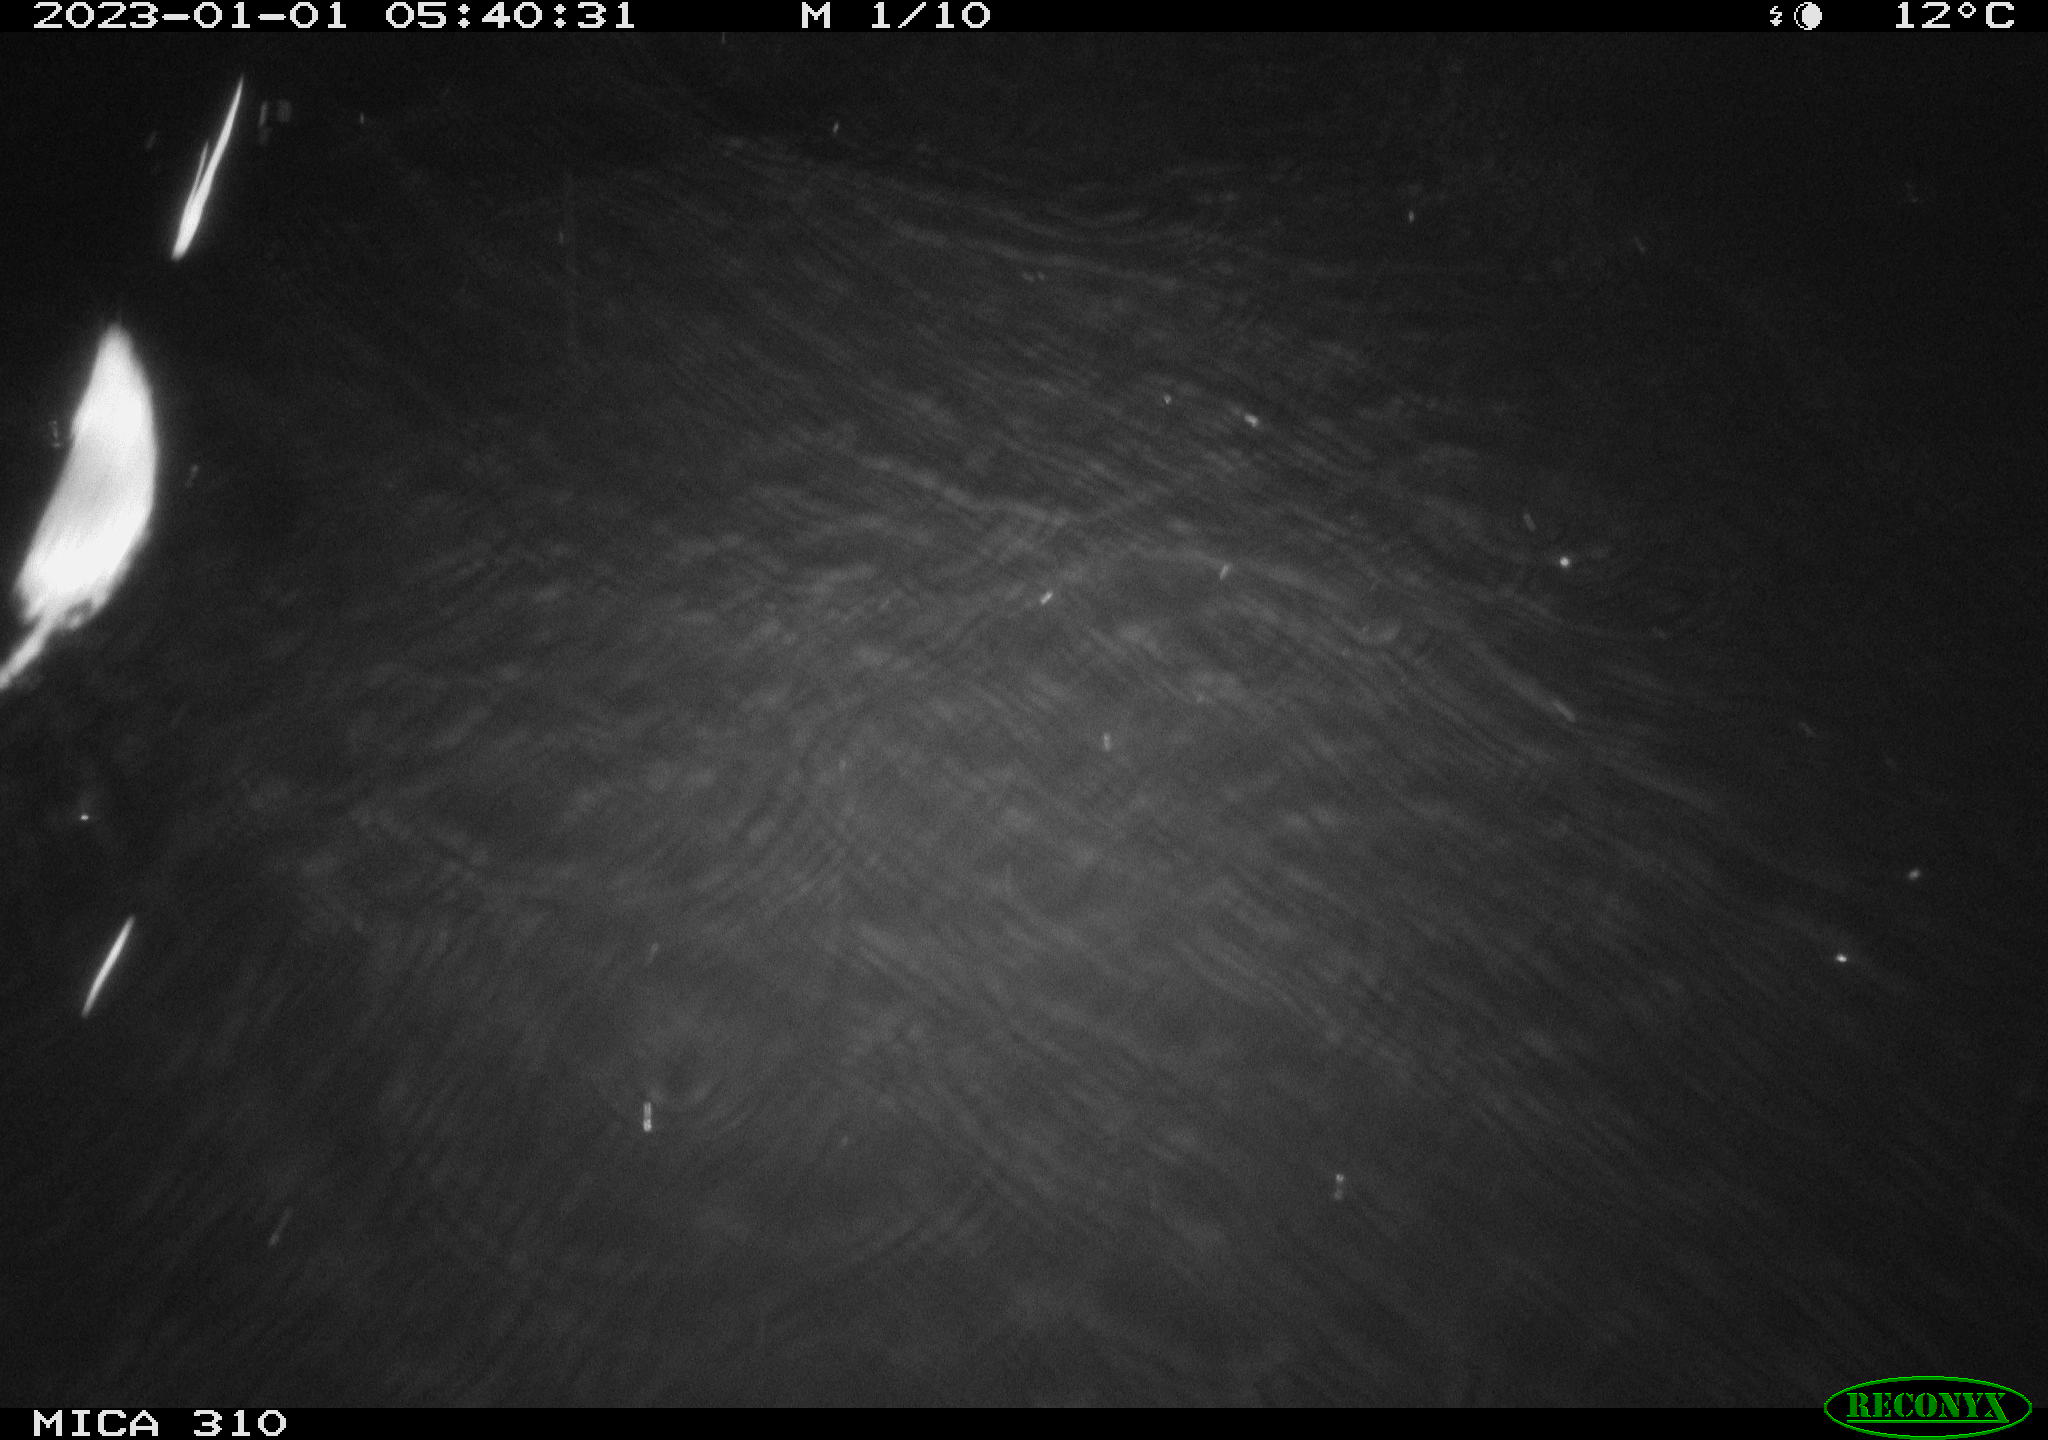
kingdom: Animalia
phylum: Chordata
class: Mammalia
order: Rodentia
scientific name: Rodentia
